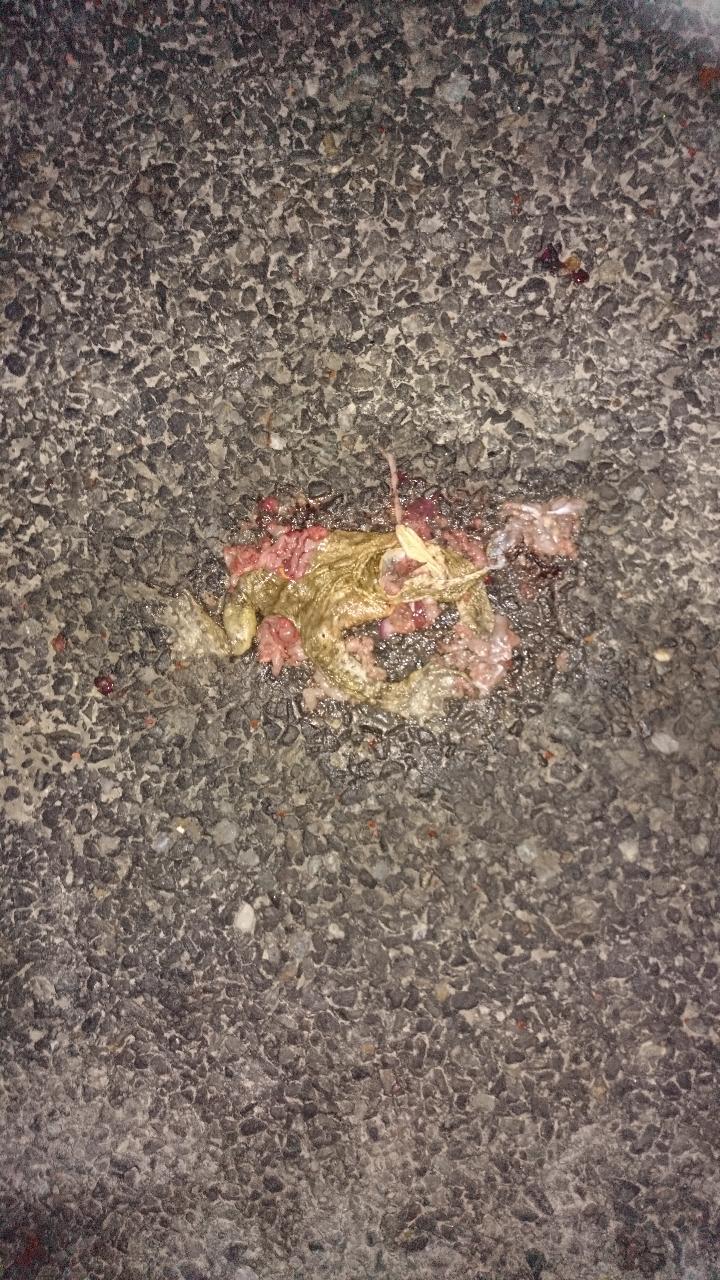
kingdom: Animalia
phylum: Chordata
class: Amphibia
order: Anura
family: Bufonidae
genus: Bufo
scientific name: Bufo bufo
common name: Common toad
